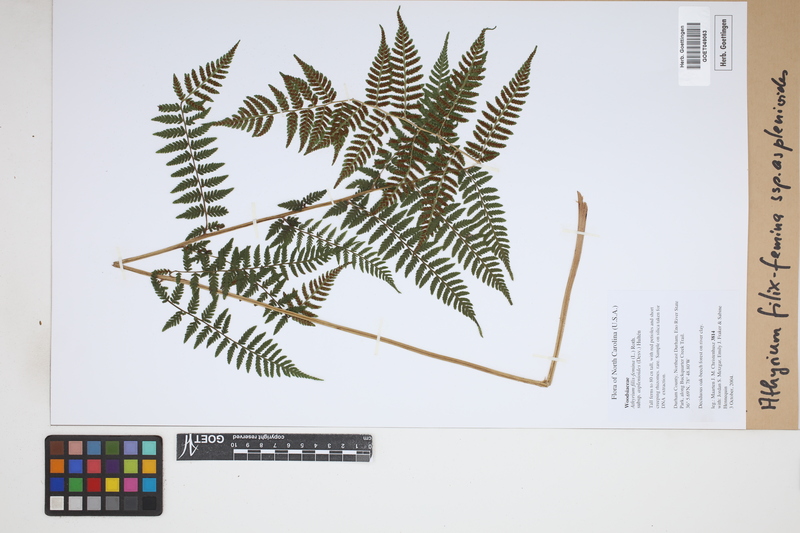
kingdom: Plantae
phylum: Tracheophyta
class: Polypodiopsida
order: Polypodiales
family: Athyriaceae
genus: Athyrium
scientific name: Athyrium asplenioides
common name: Southern lady fern
